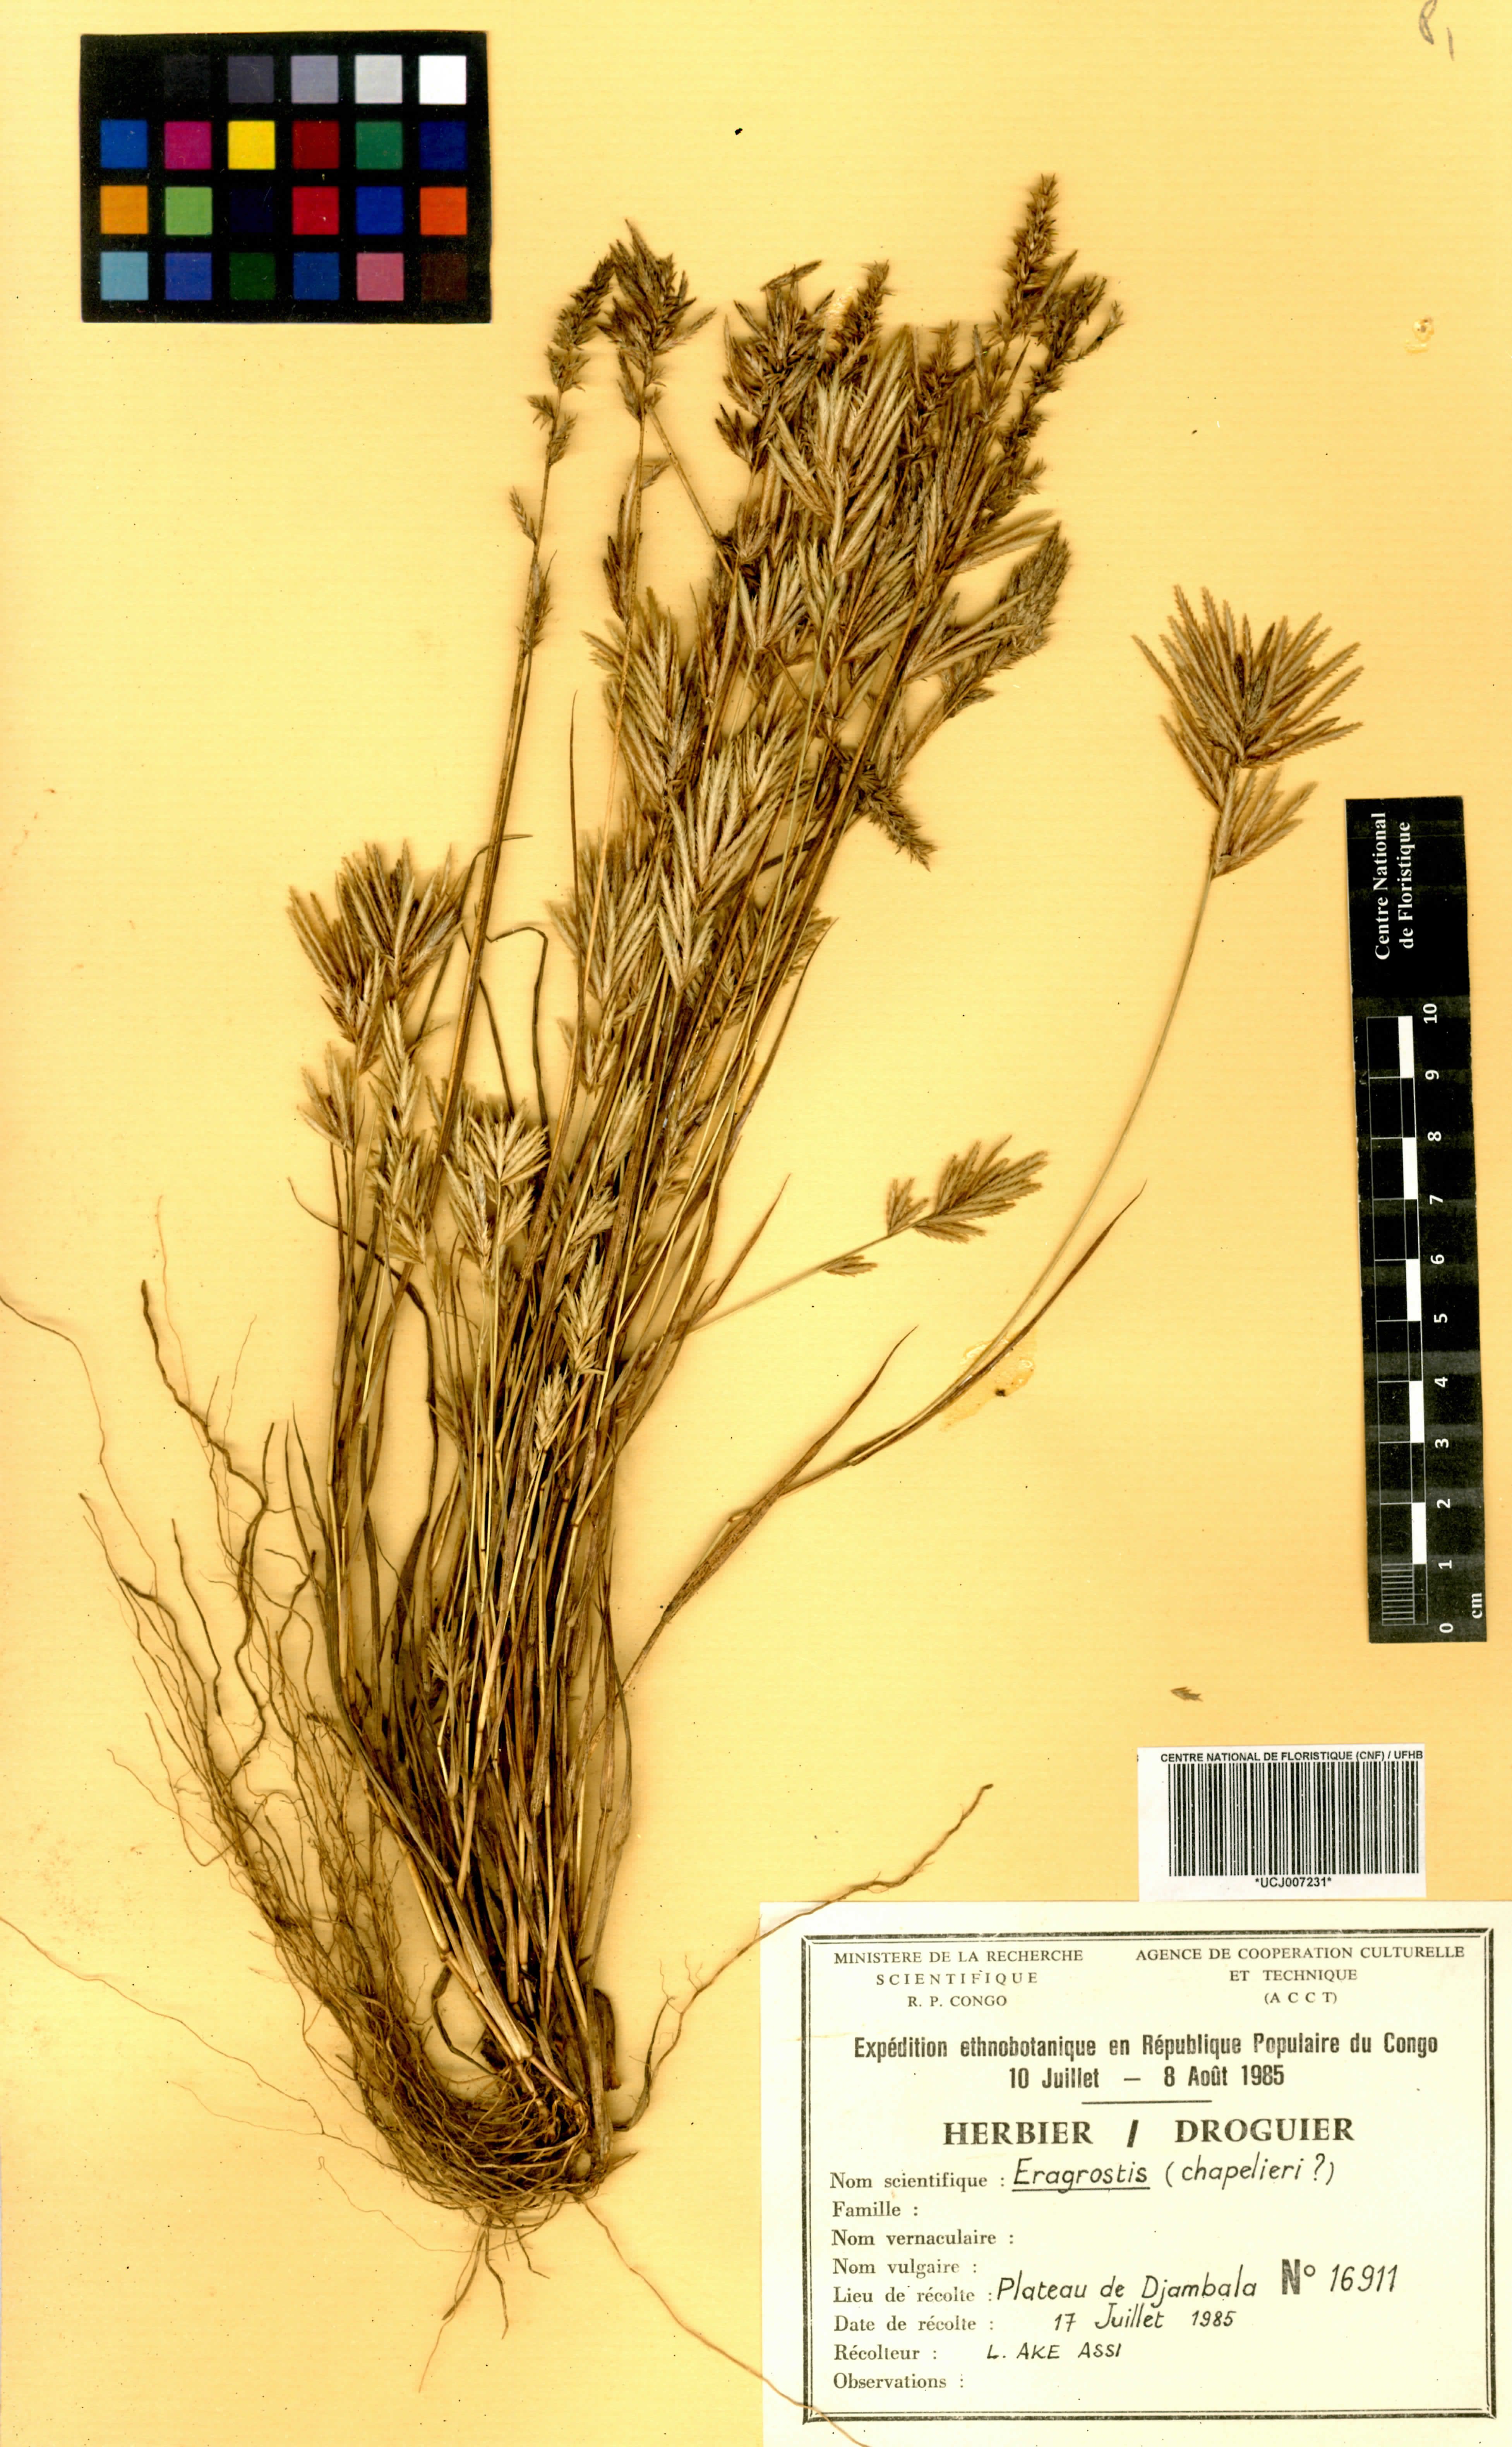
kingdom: Plantae
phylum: Tracheophyta
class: Liliopsida
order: Poales
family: Poaceae
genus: Eragrostis
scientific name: Eragrostis
